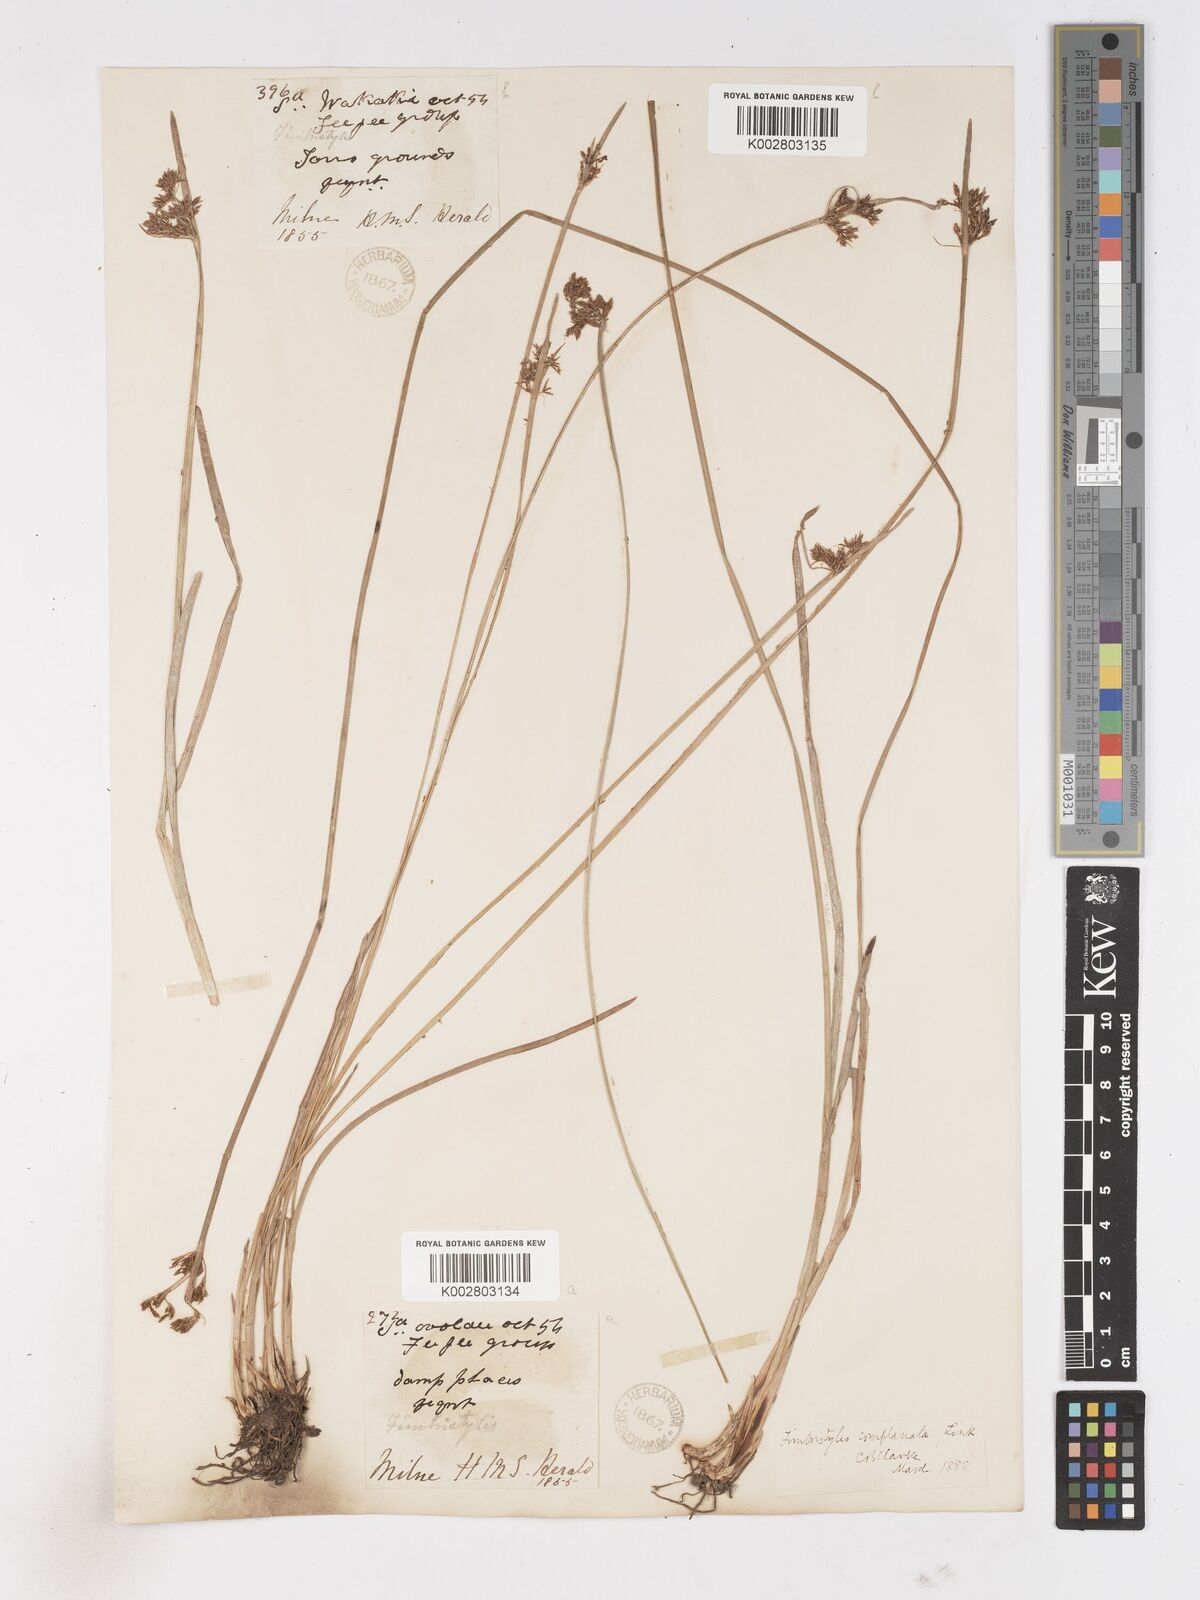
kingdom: Plantae
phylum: Tracheophyta
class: Liliopsida
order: Poales
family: Cyperaceae
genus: Fimbristylis
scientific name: Fimbristylis complanata
